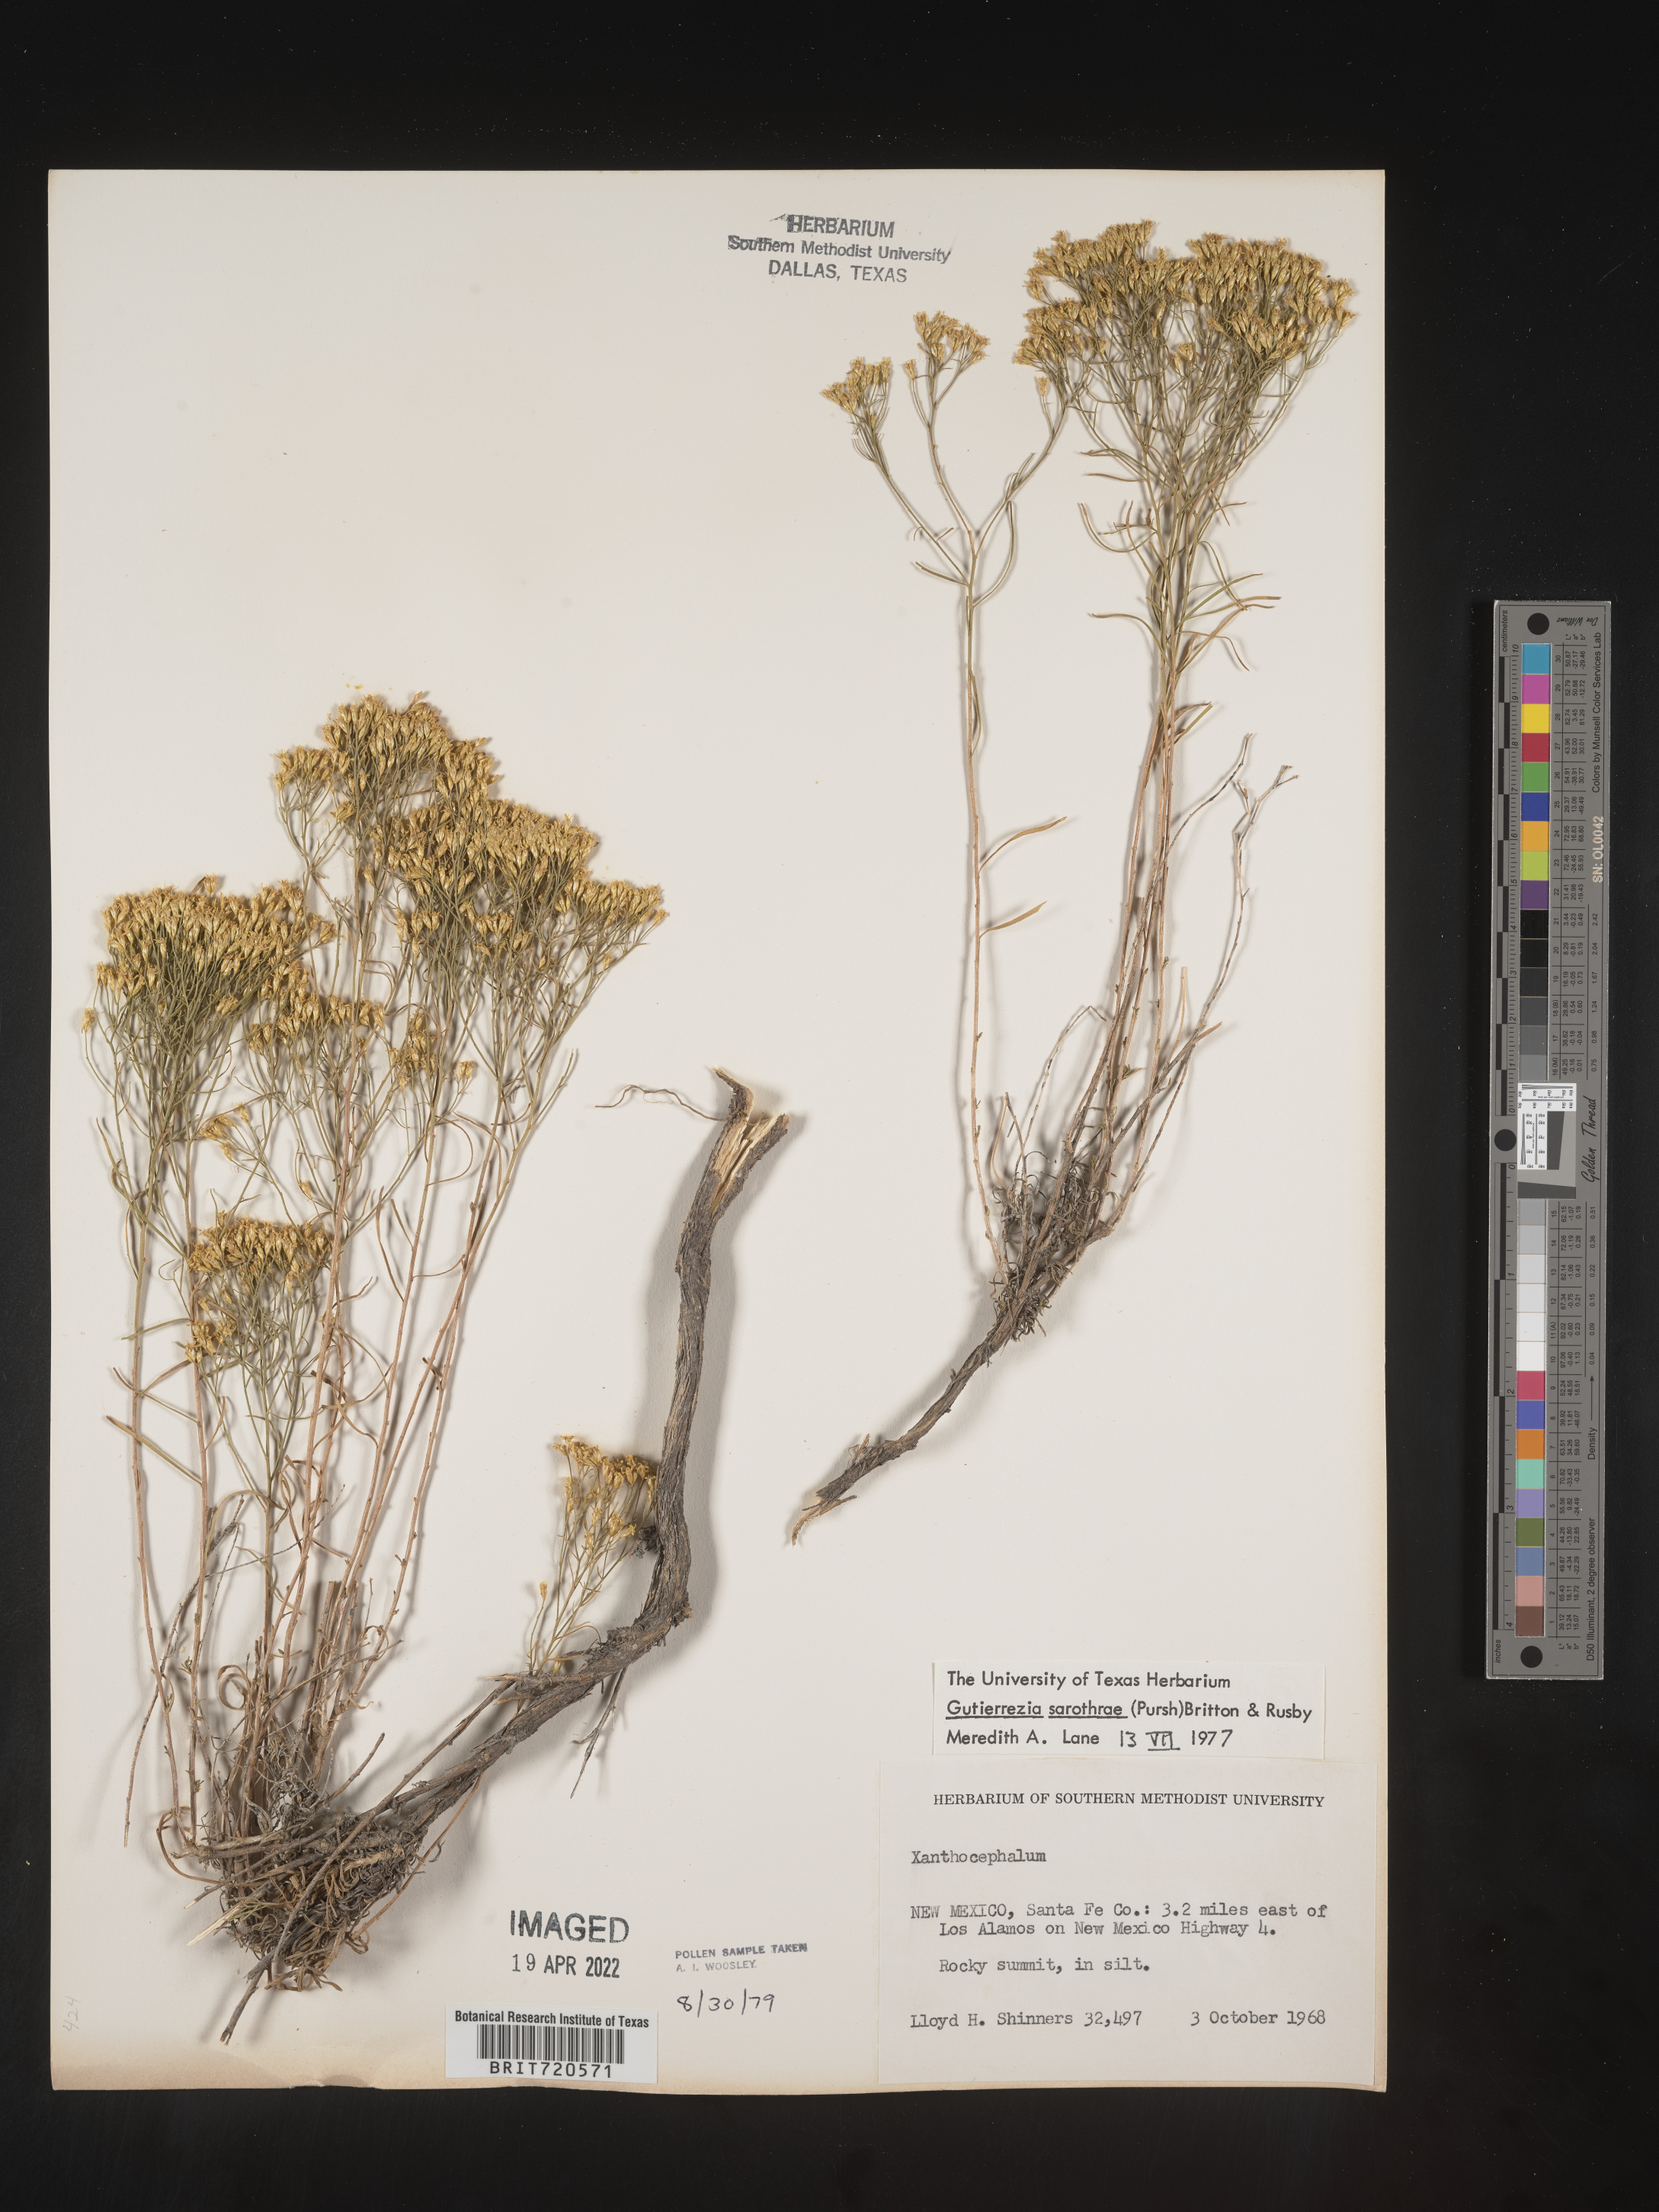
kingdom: Plantae
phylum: Tracheophyta
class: Magnoliopsida
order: Asterales
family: Asteraceae
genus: Gutierrezia
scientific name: Gutierrezia sarothrae
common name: Broom snakeweed
